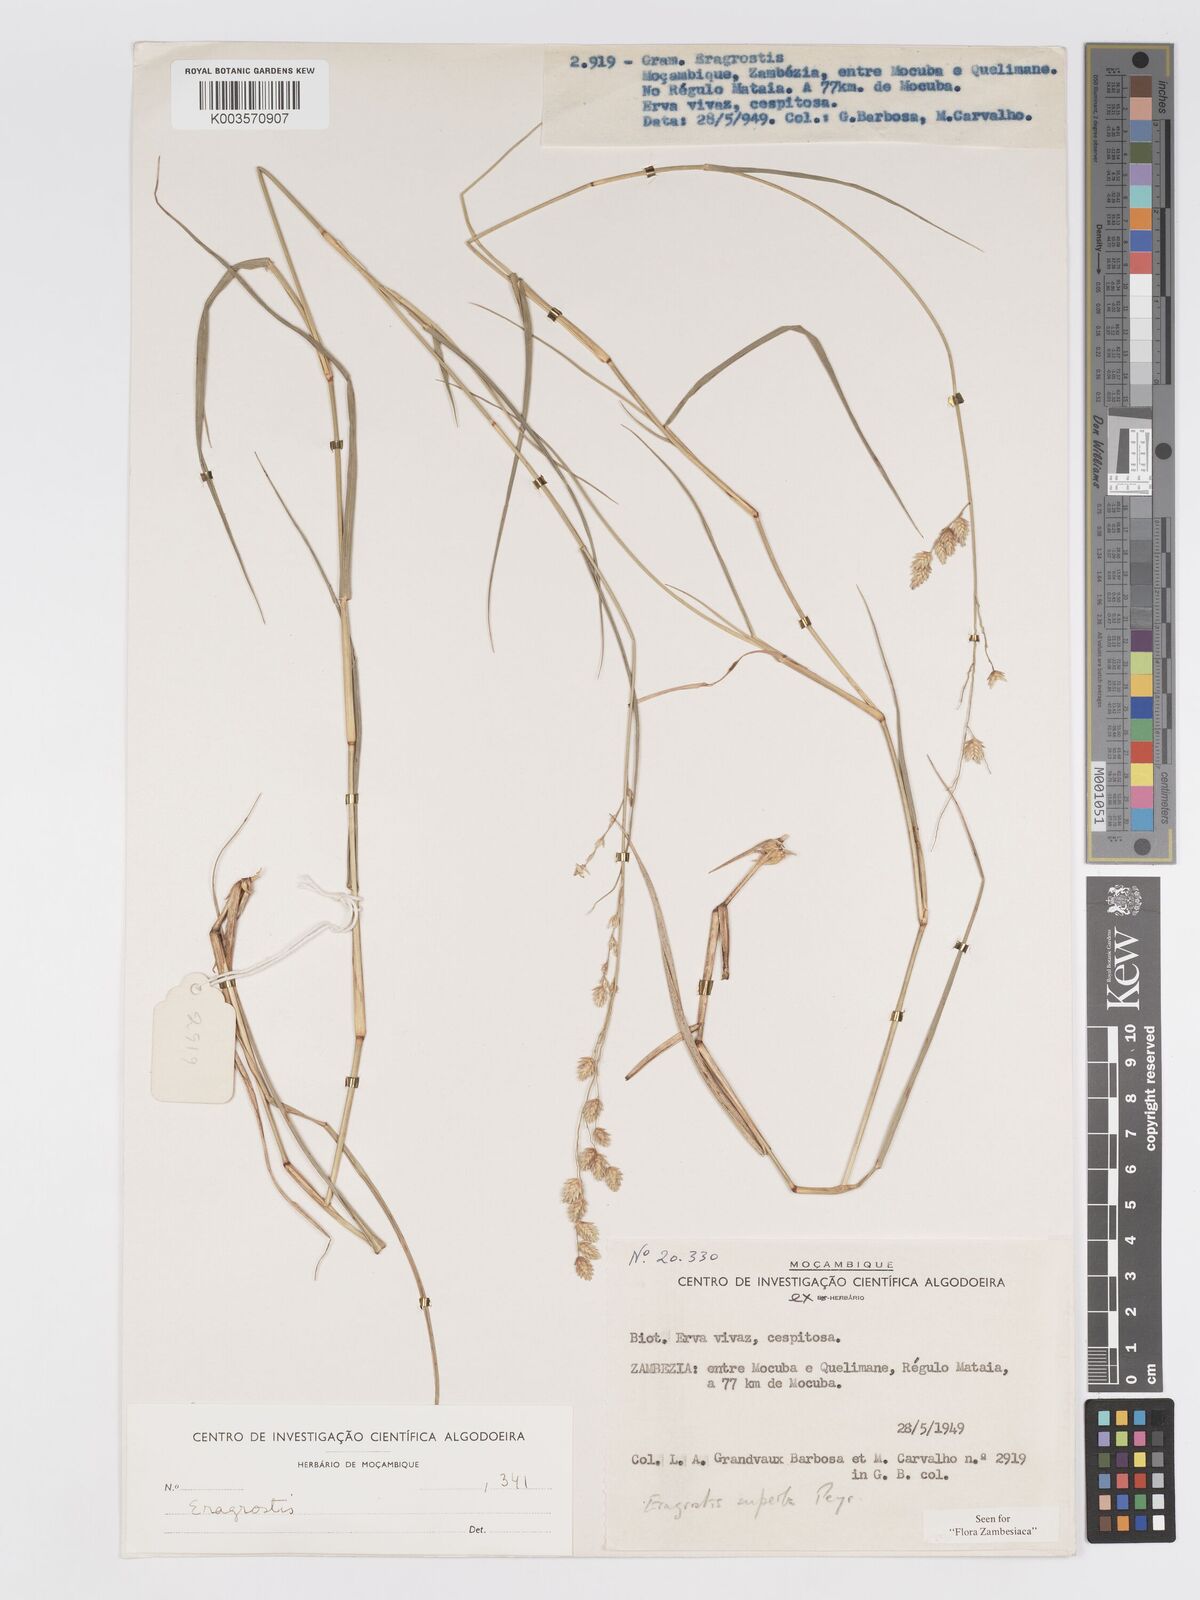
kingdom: Plantae
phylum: Tracheophyta
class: Liliopsida
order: Poales
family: Poaceae
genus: Eragrostis
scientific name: Eragrostis superba
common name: Wilman lovegrass
